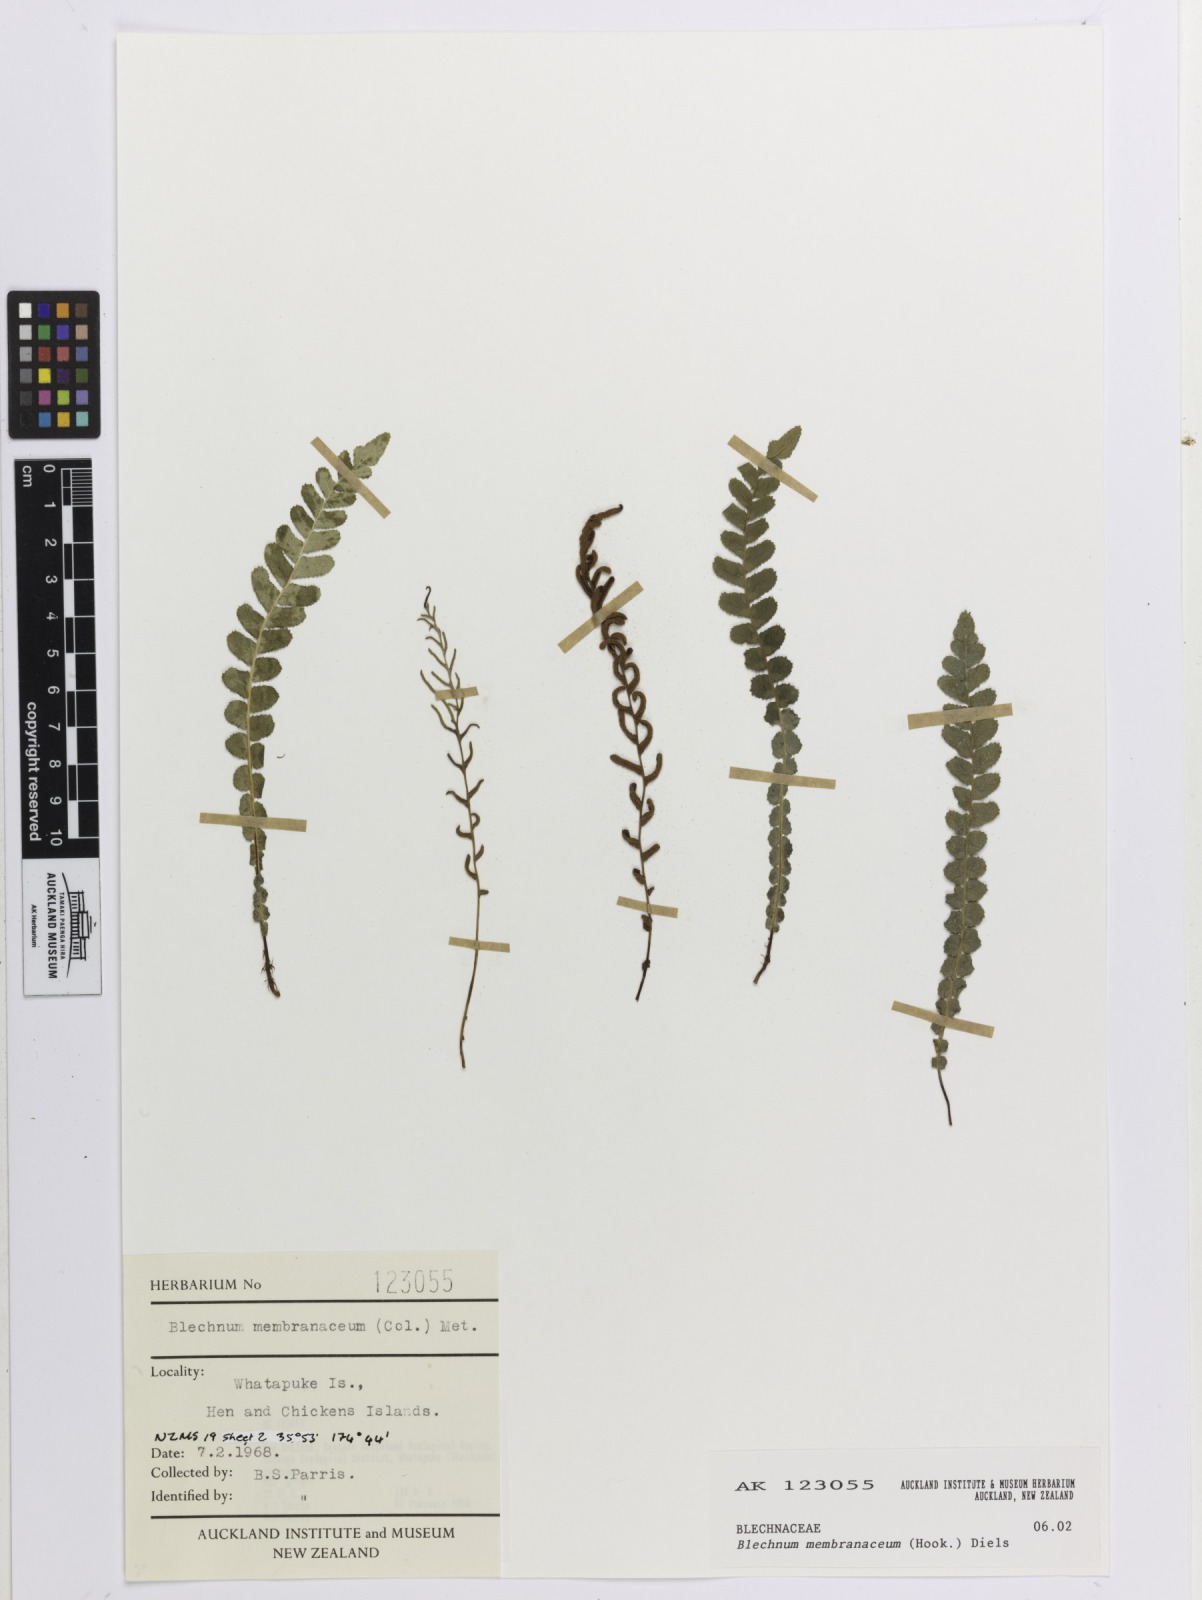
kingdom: Plantae
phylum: Tracheophyta
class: Polypodiopsida
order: Polypodiales
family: Blechnaceae
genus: Austroblechnum
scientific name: Austroblechnum membranaceum
